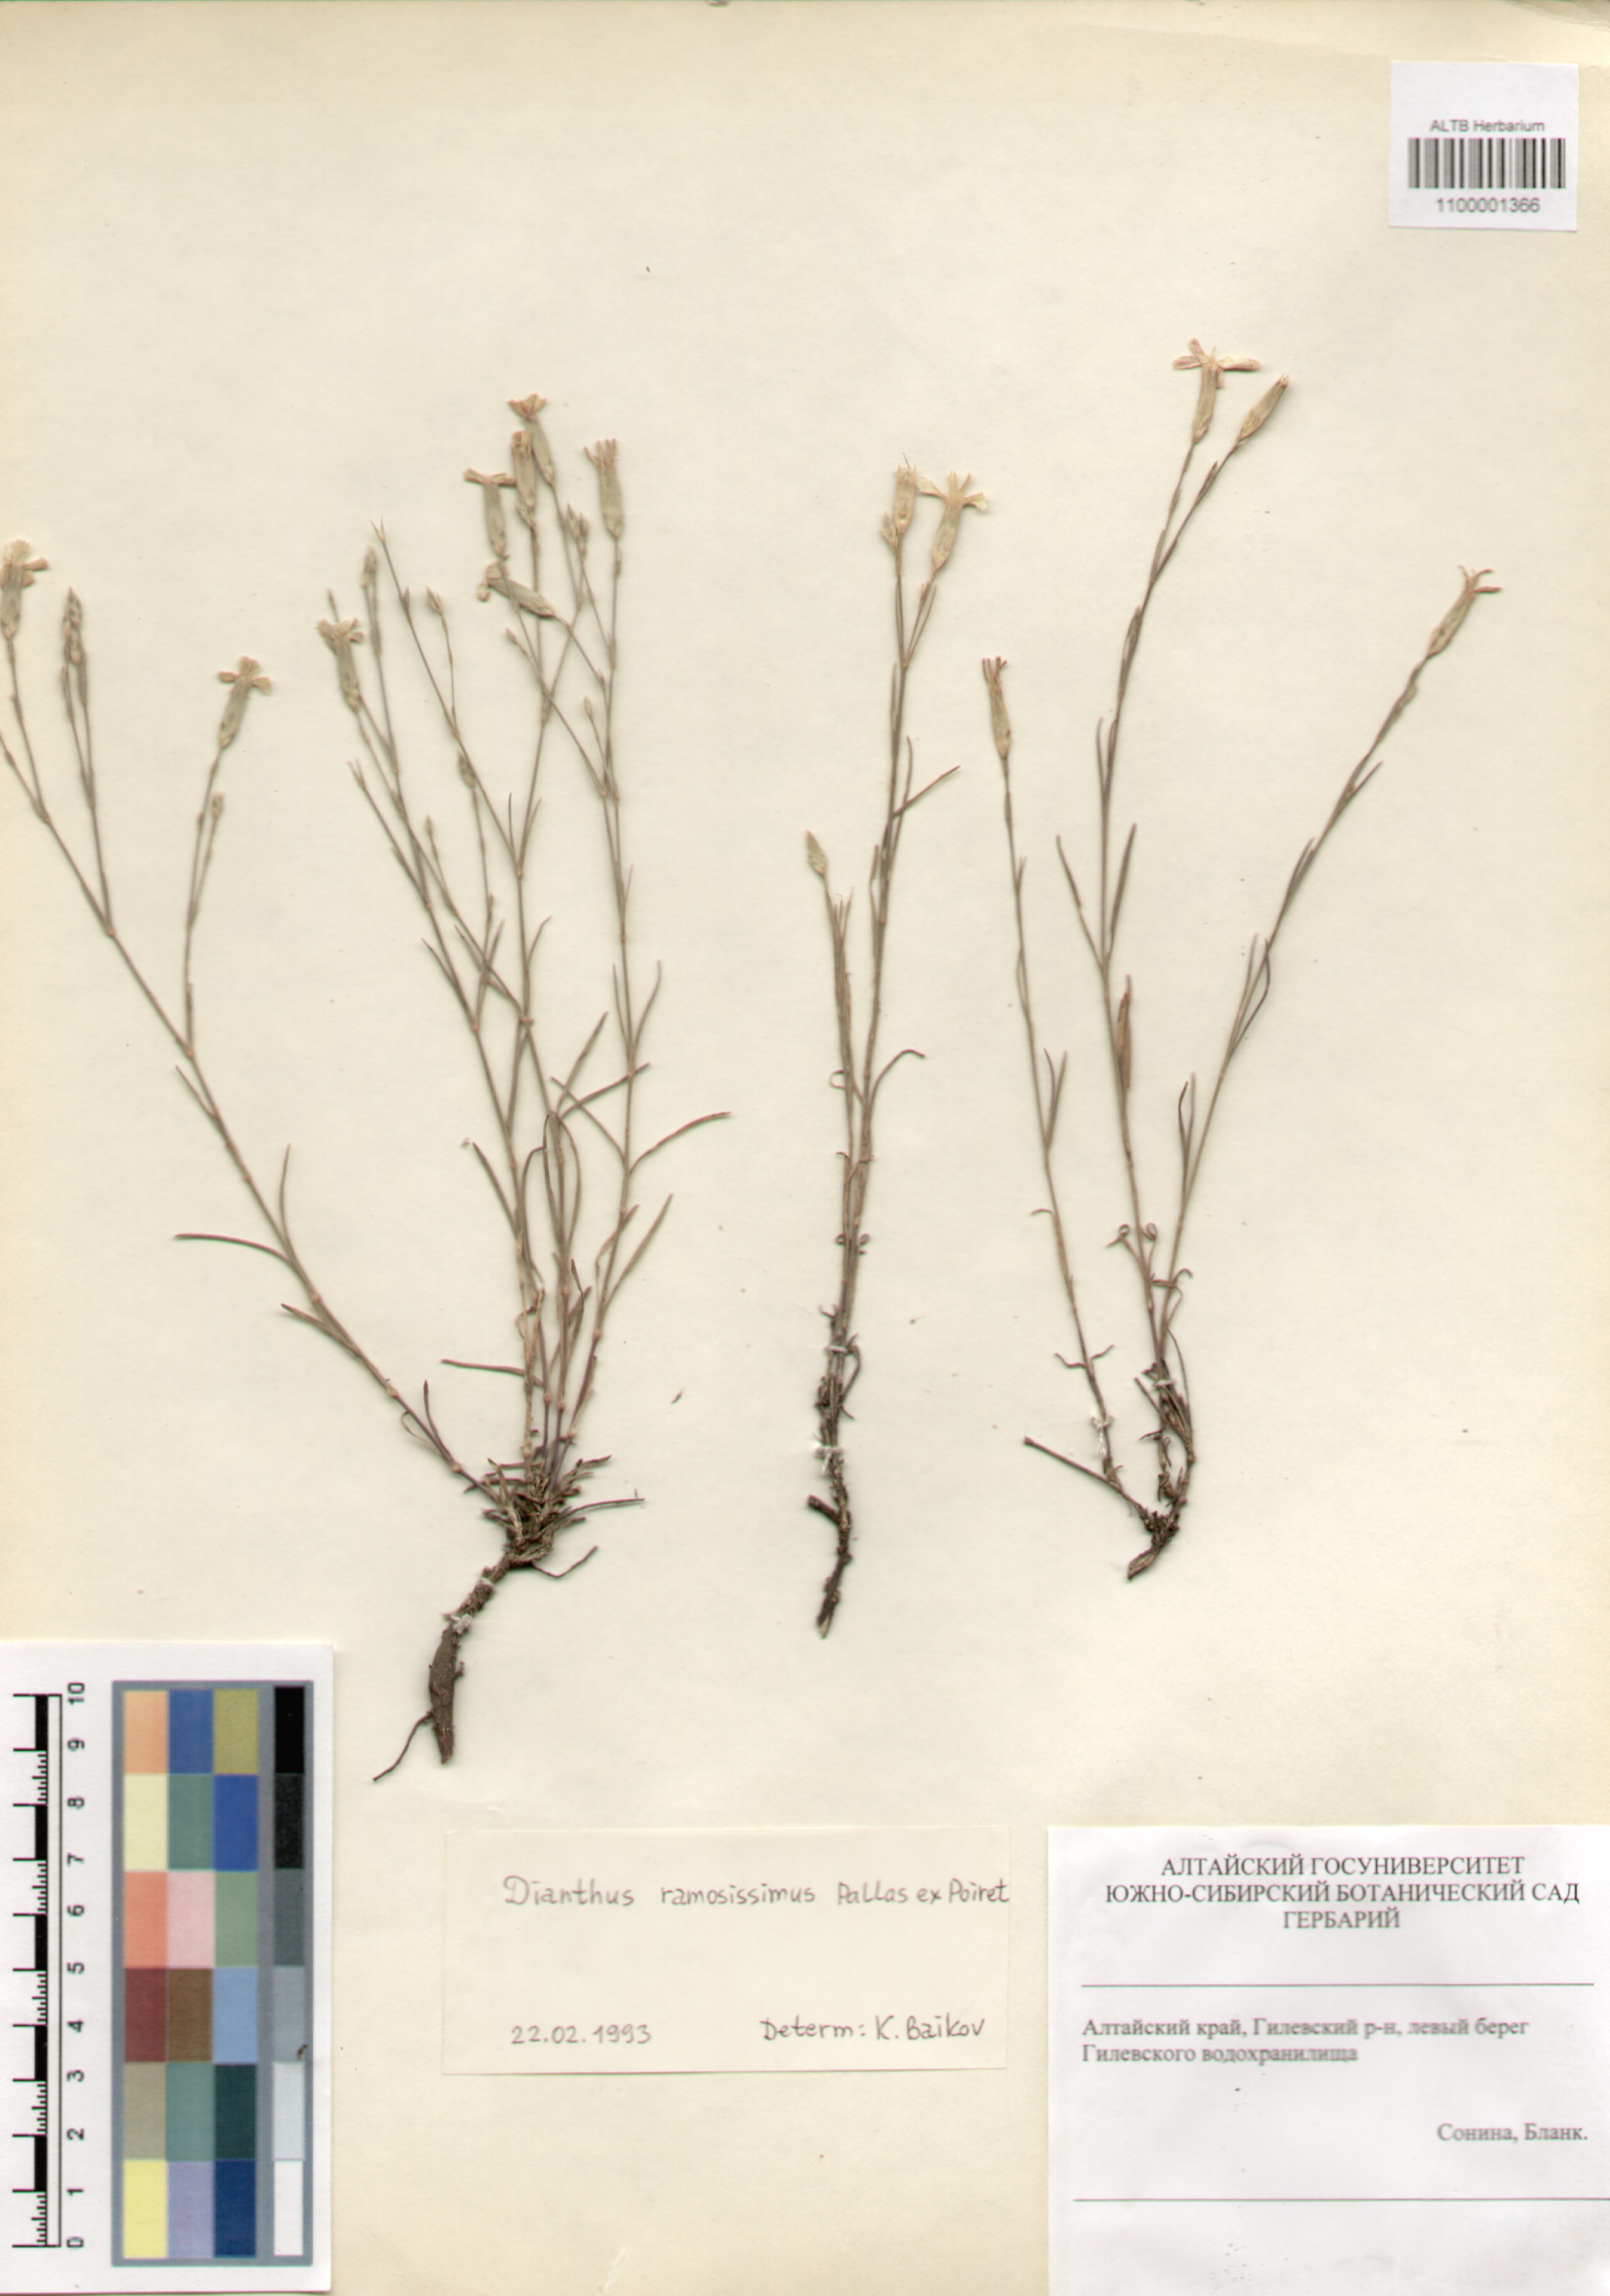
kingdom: Plantae
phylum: Tracheophyta
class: Magnoliopsida
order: Caryophyllales
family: Caryophyllaceae
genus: Dianthus
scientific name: Dianthus ramosissimus
